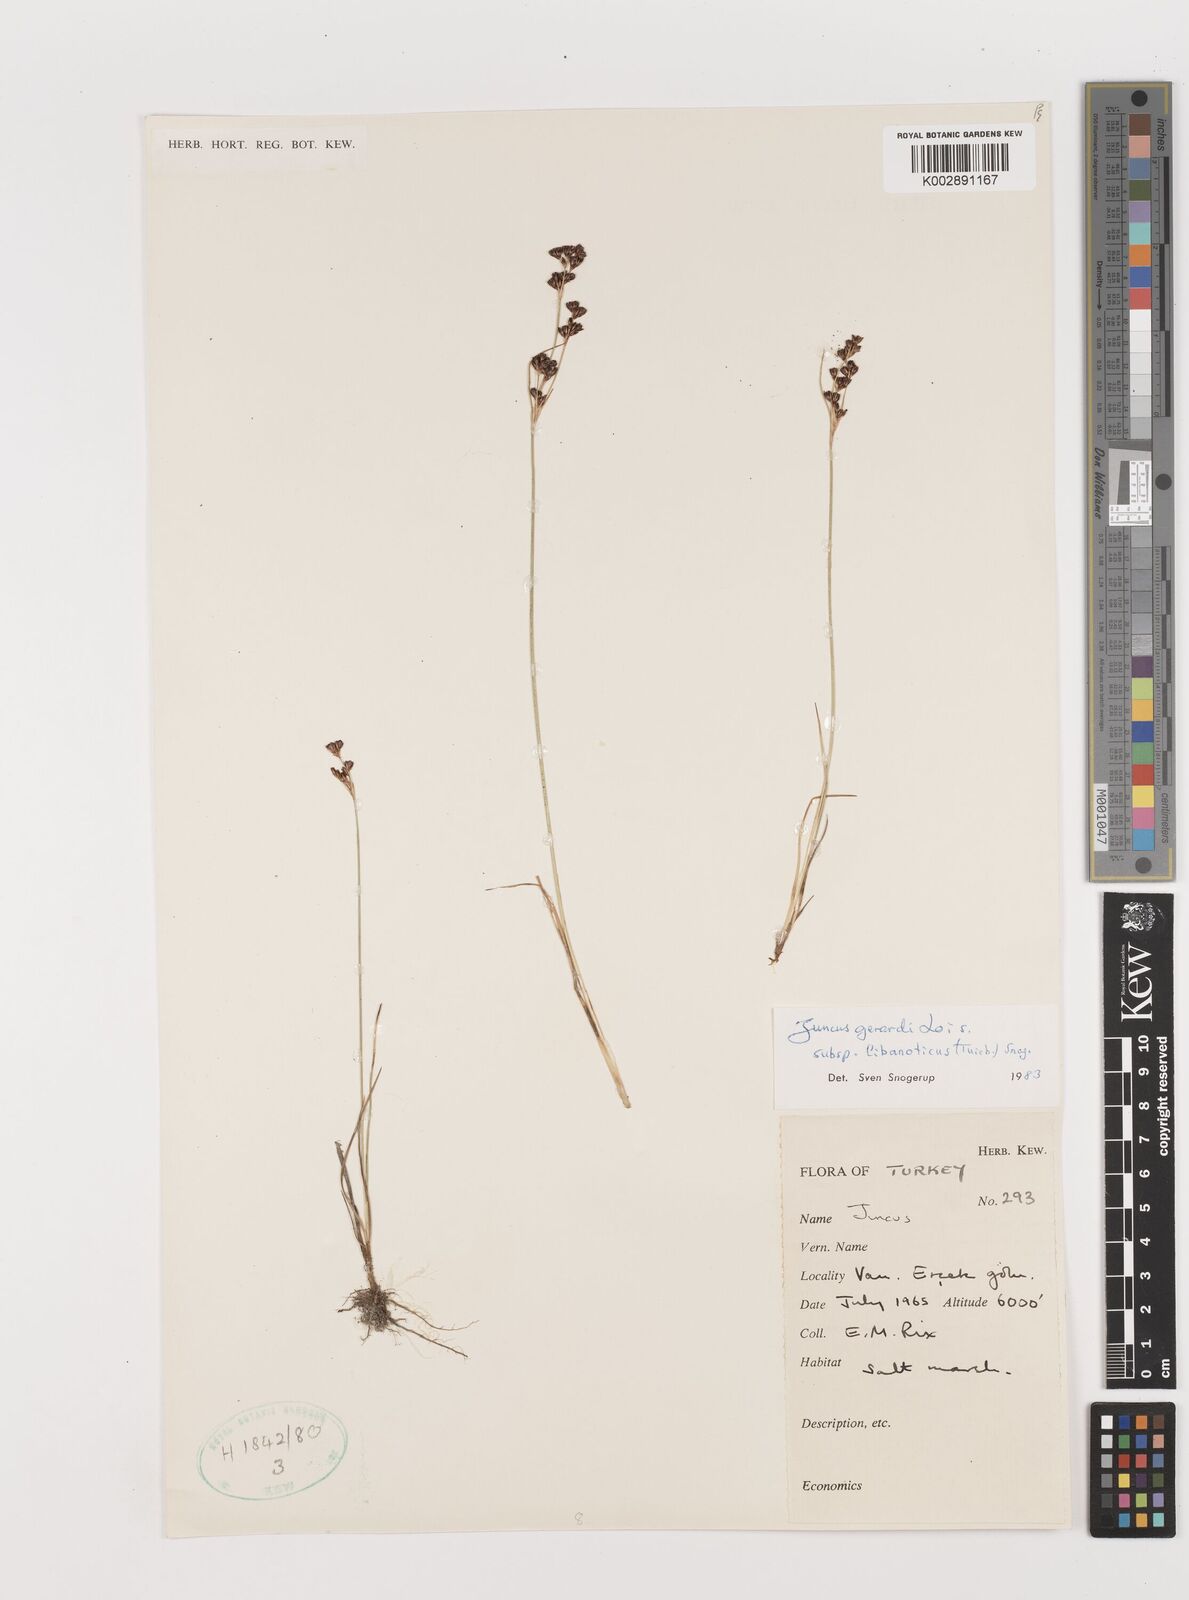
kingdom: Plantae
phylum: Tracheophyta
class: Liliopsida
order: Poales
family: Juncaceae
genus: Juncus
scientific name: Juncus persicus
